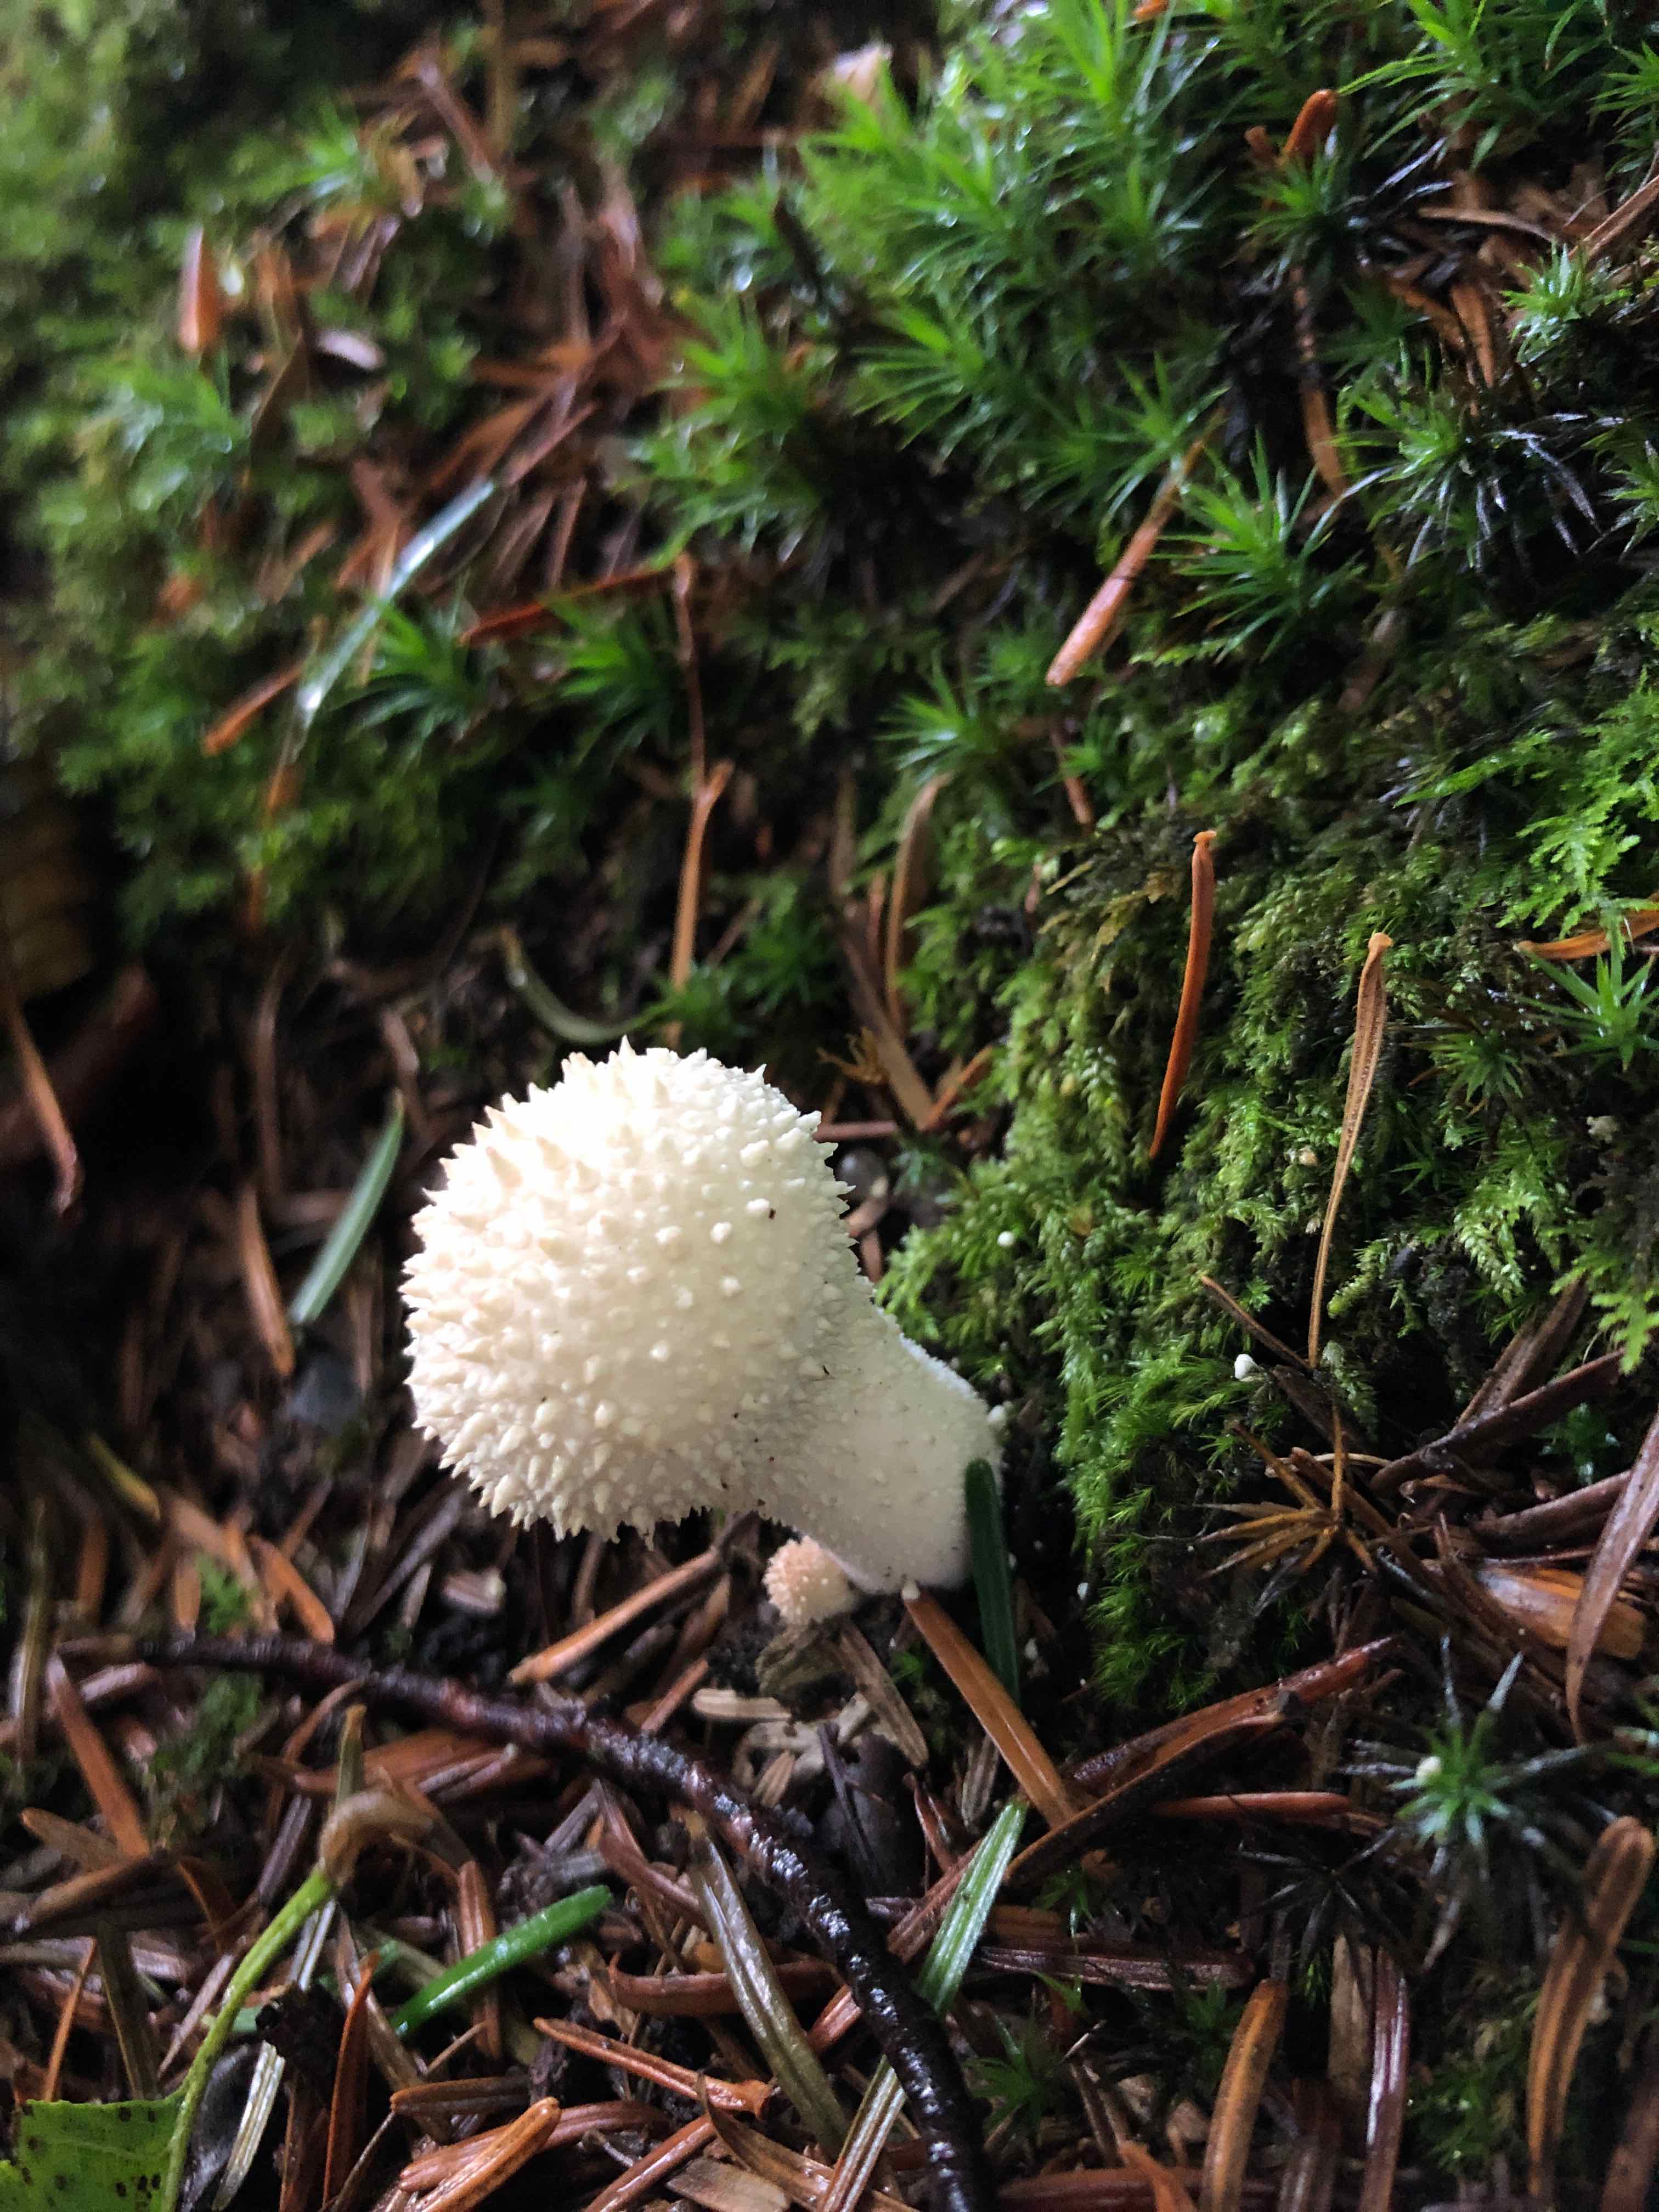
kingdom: Fungi
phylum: Basidiomycota
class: Agaricomycetes
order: Agaricales
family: Lycoperdaceae
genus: Lycoperdon
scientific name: Lycoperdon perlatum
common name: krystal-støvbold
